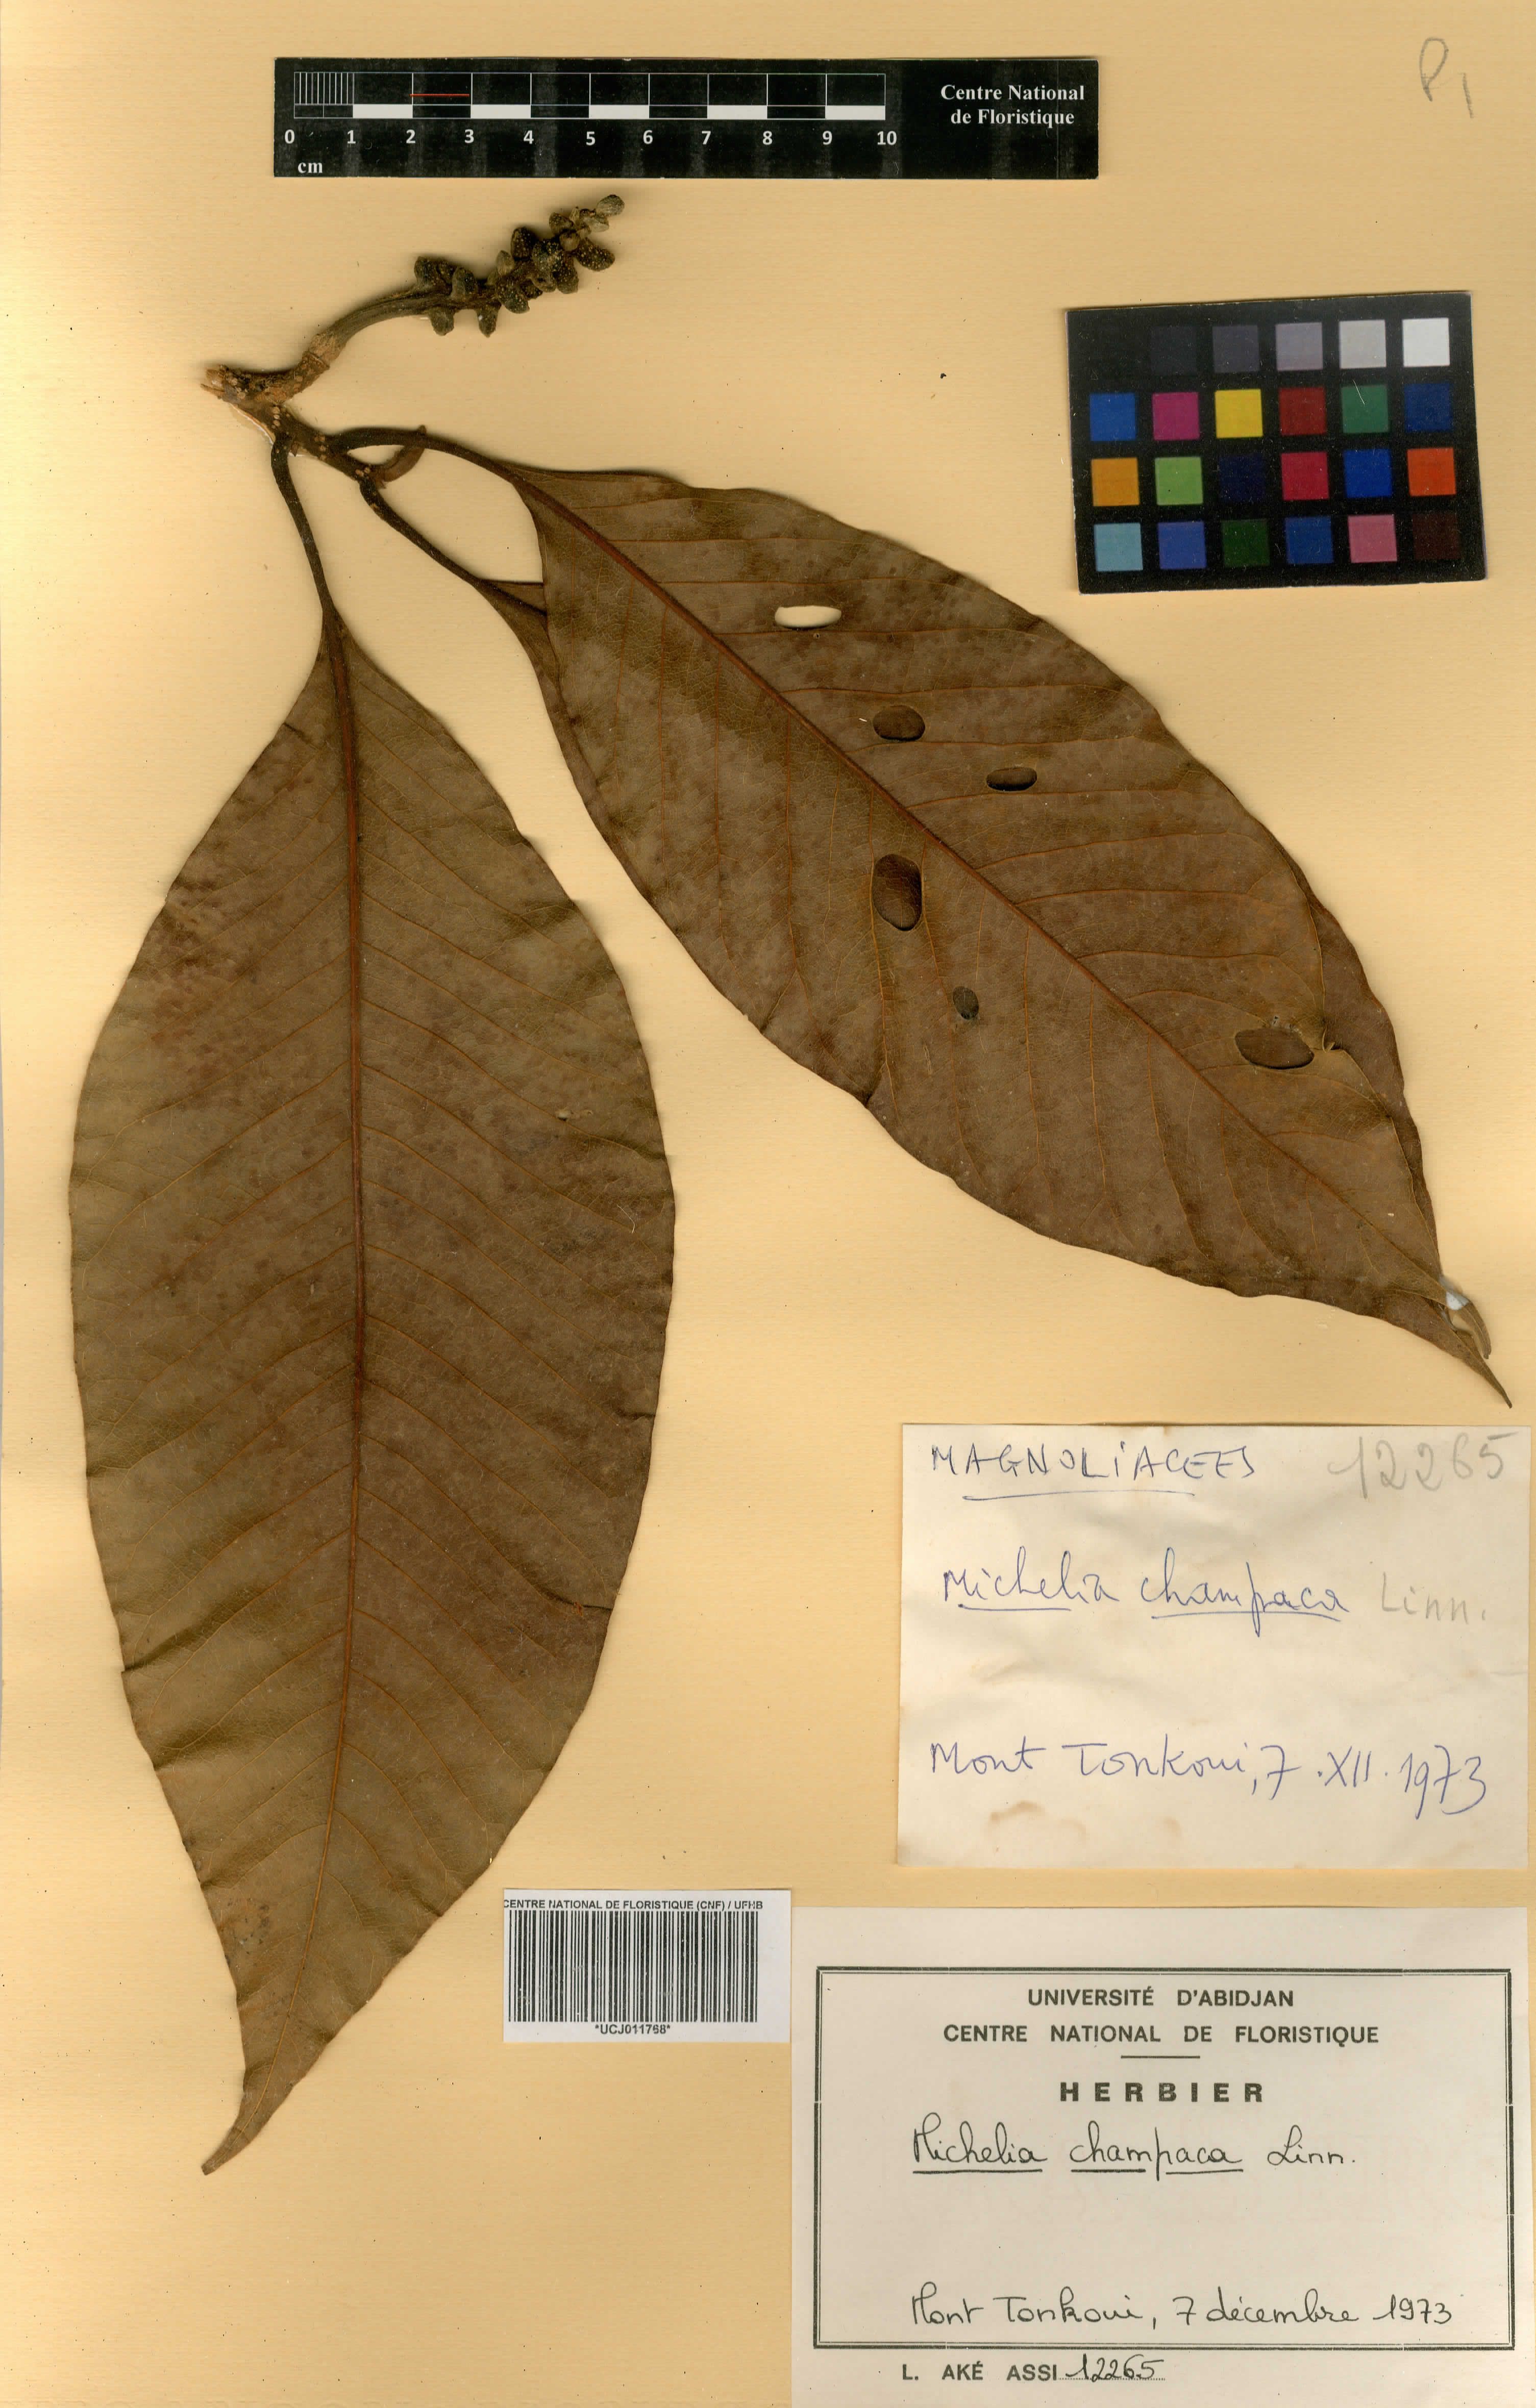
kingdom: Plantae
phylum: Tracheophyta
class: Magnoliopsida
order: Magnoliales
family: Magnoliaceae
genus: Magnolia
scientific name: Magnolia champaca
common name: Champak
